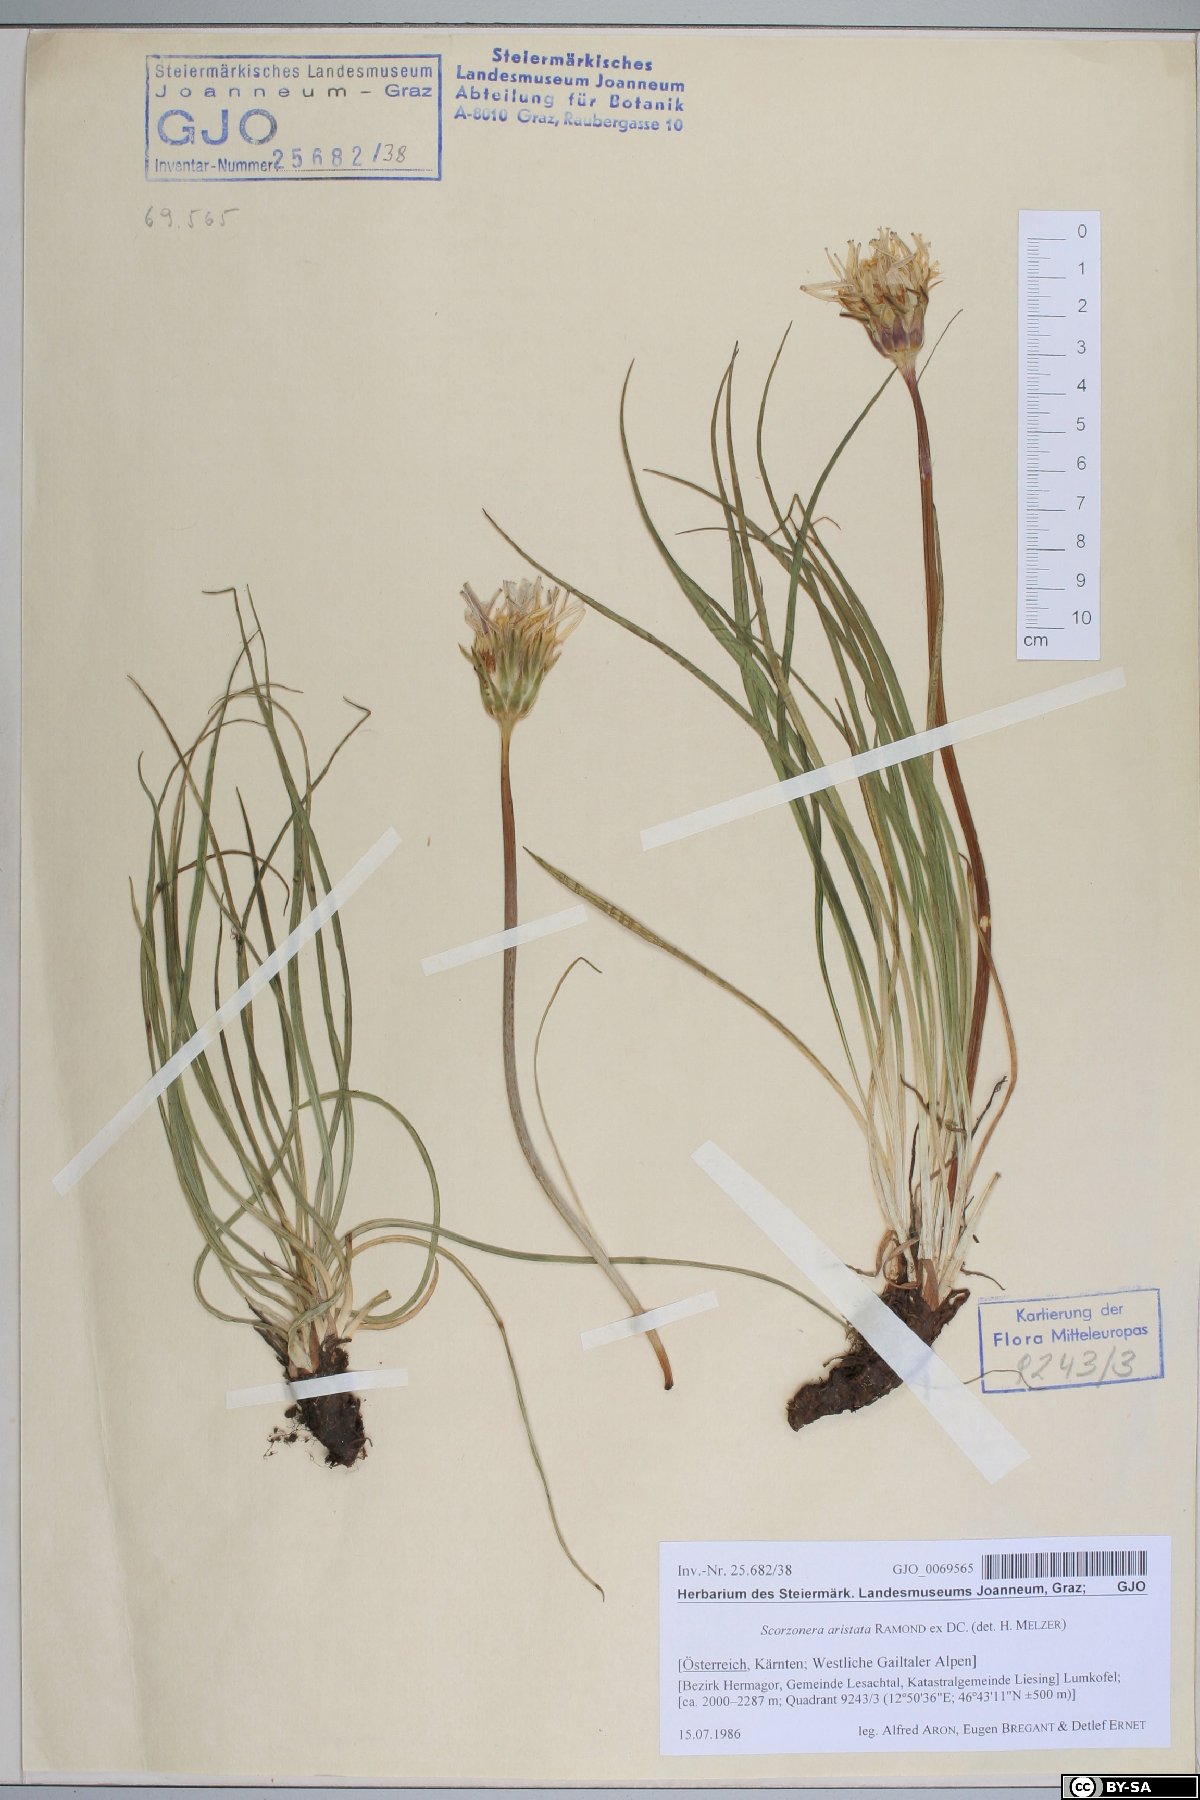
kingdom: Plantae
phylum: Tracheophyta
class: Magnoliopsida
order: Asterales
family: Asteraceae
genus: Scorzonera
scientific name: Scorzonera aristata
